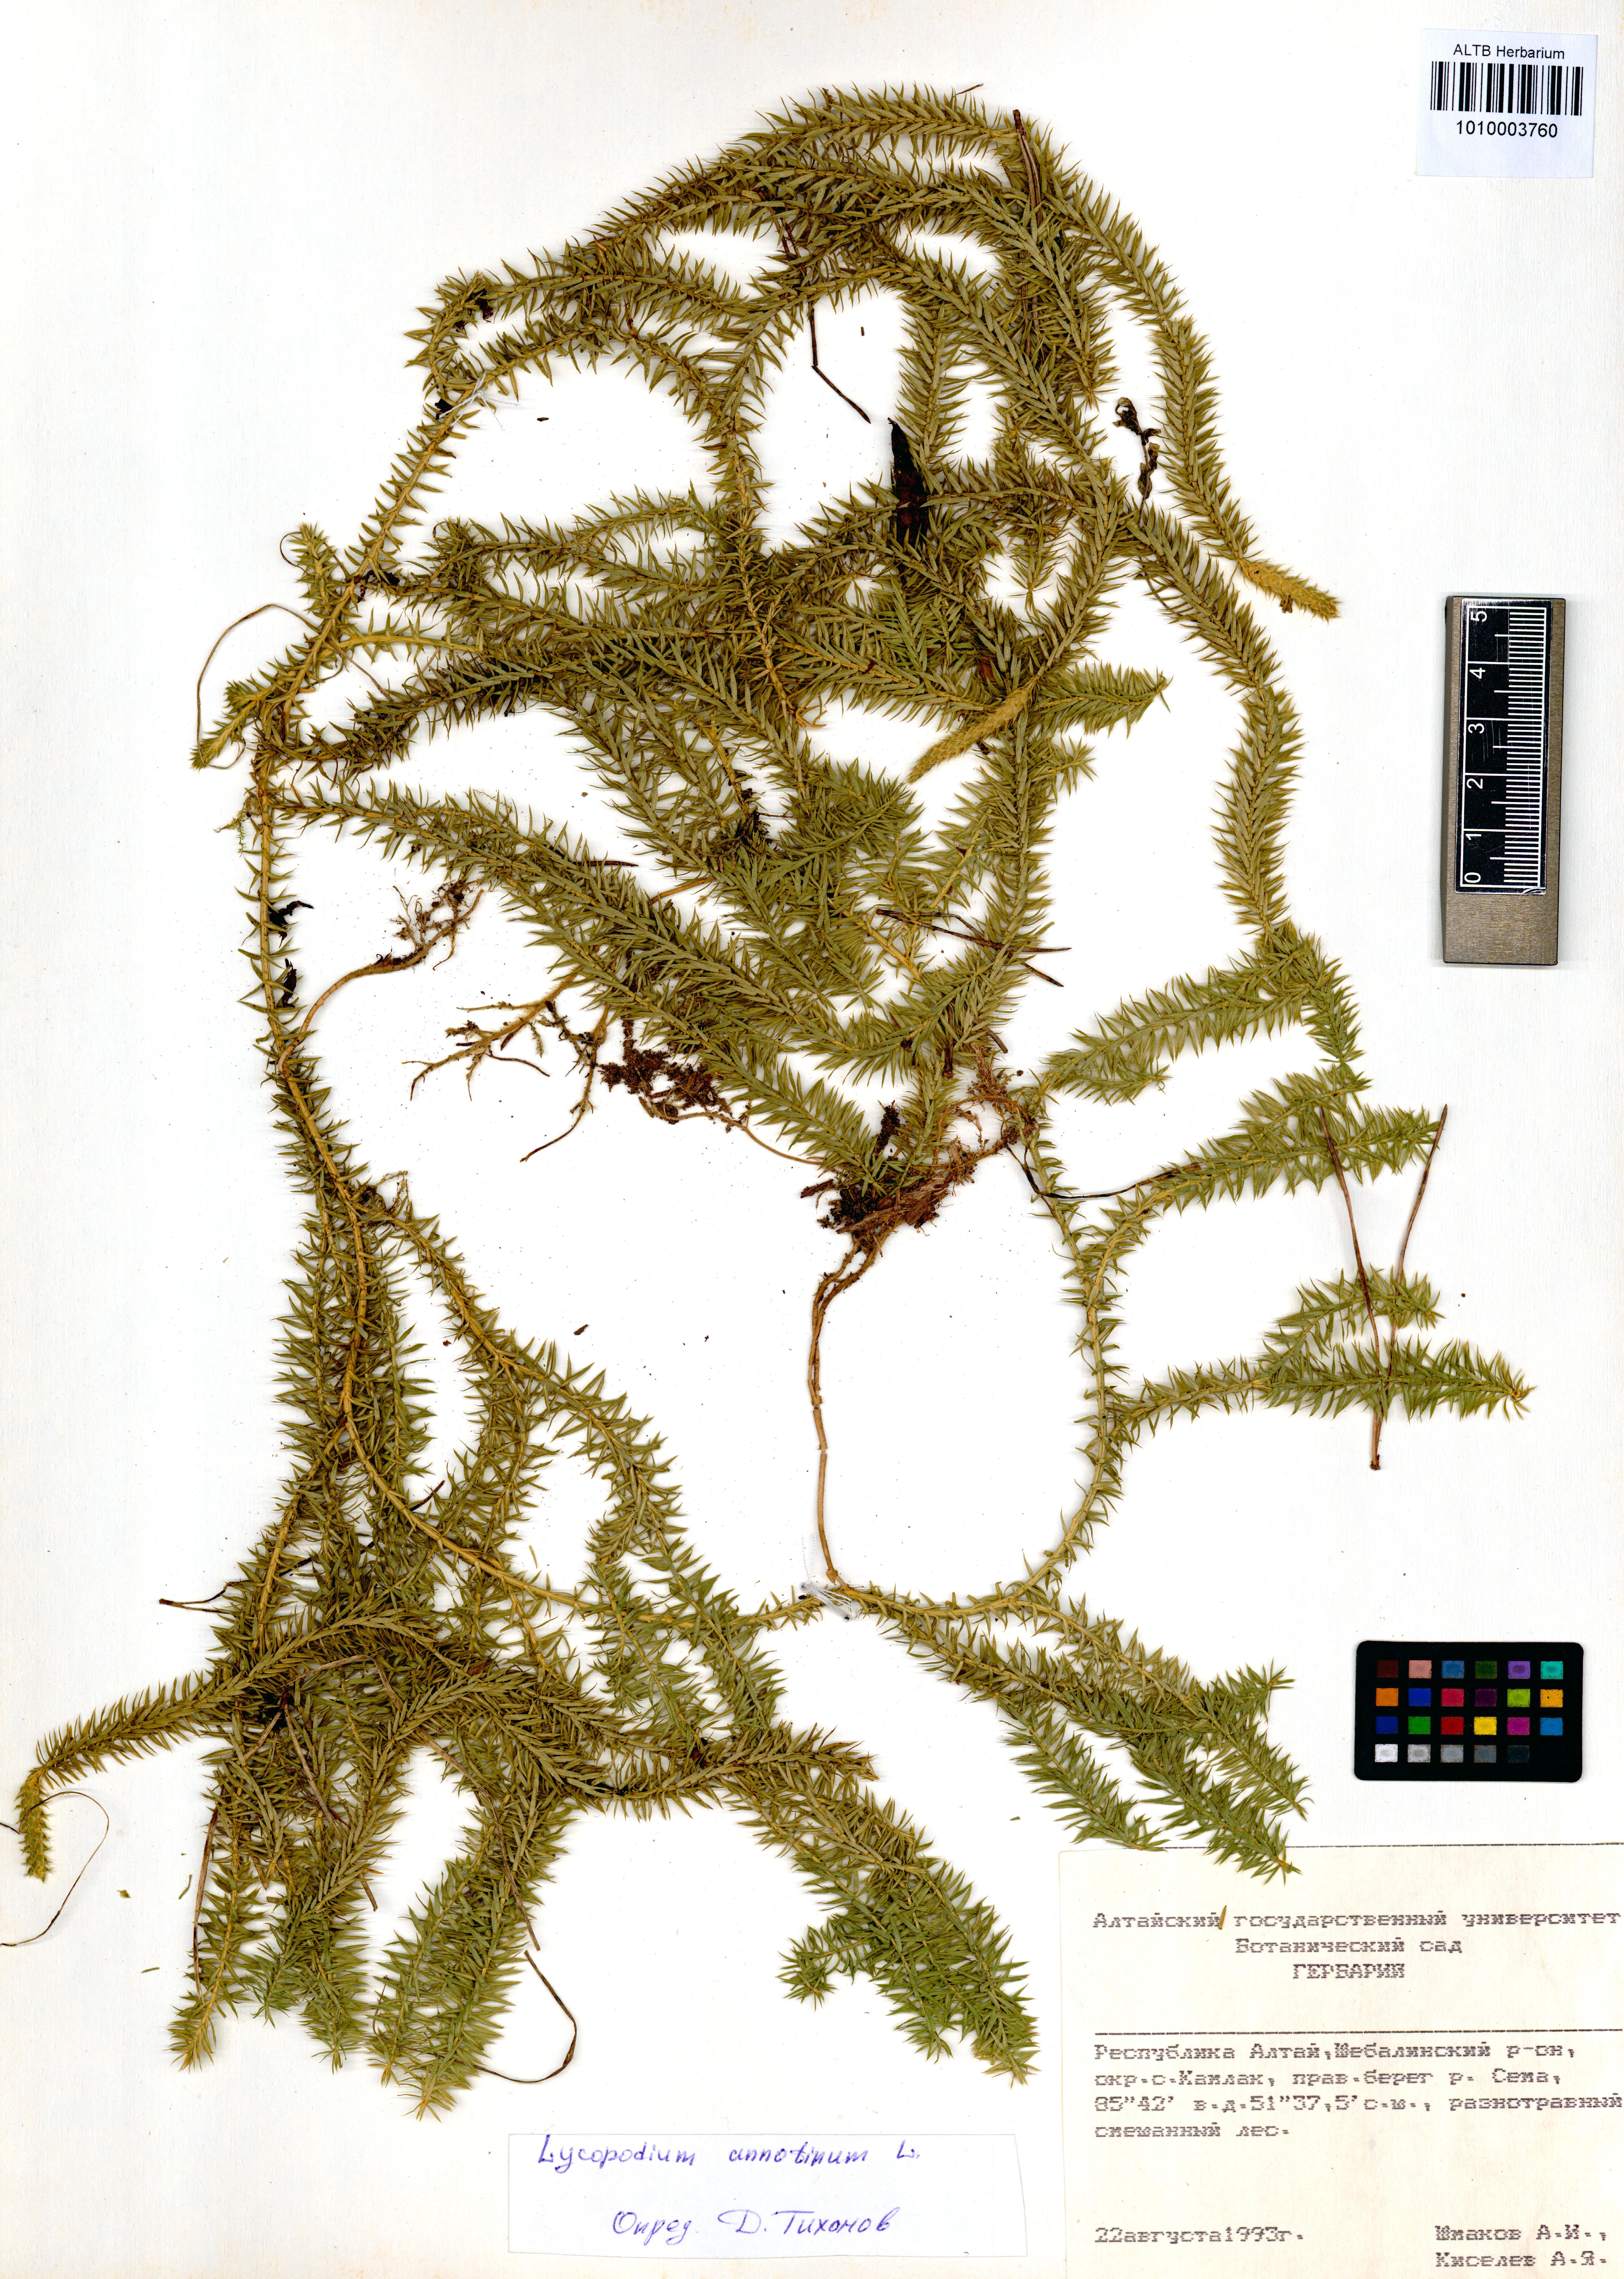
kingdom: Plantae
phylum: Tracheophyta
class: Lycopodiopsida
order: Lycopodiales
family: Lycopodiaceae
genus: Spinulum
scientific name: Spinulum annotinum
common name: Interrupted club-moss
